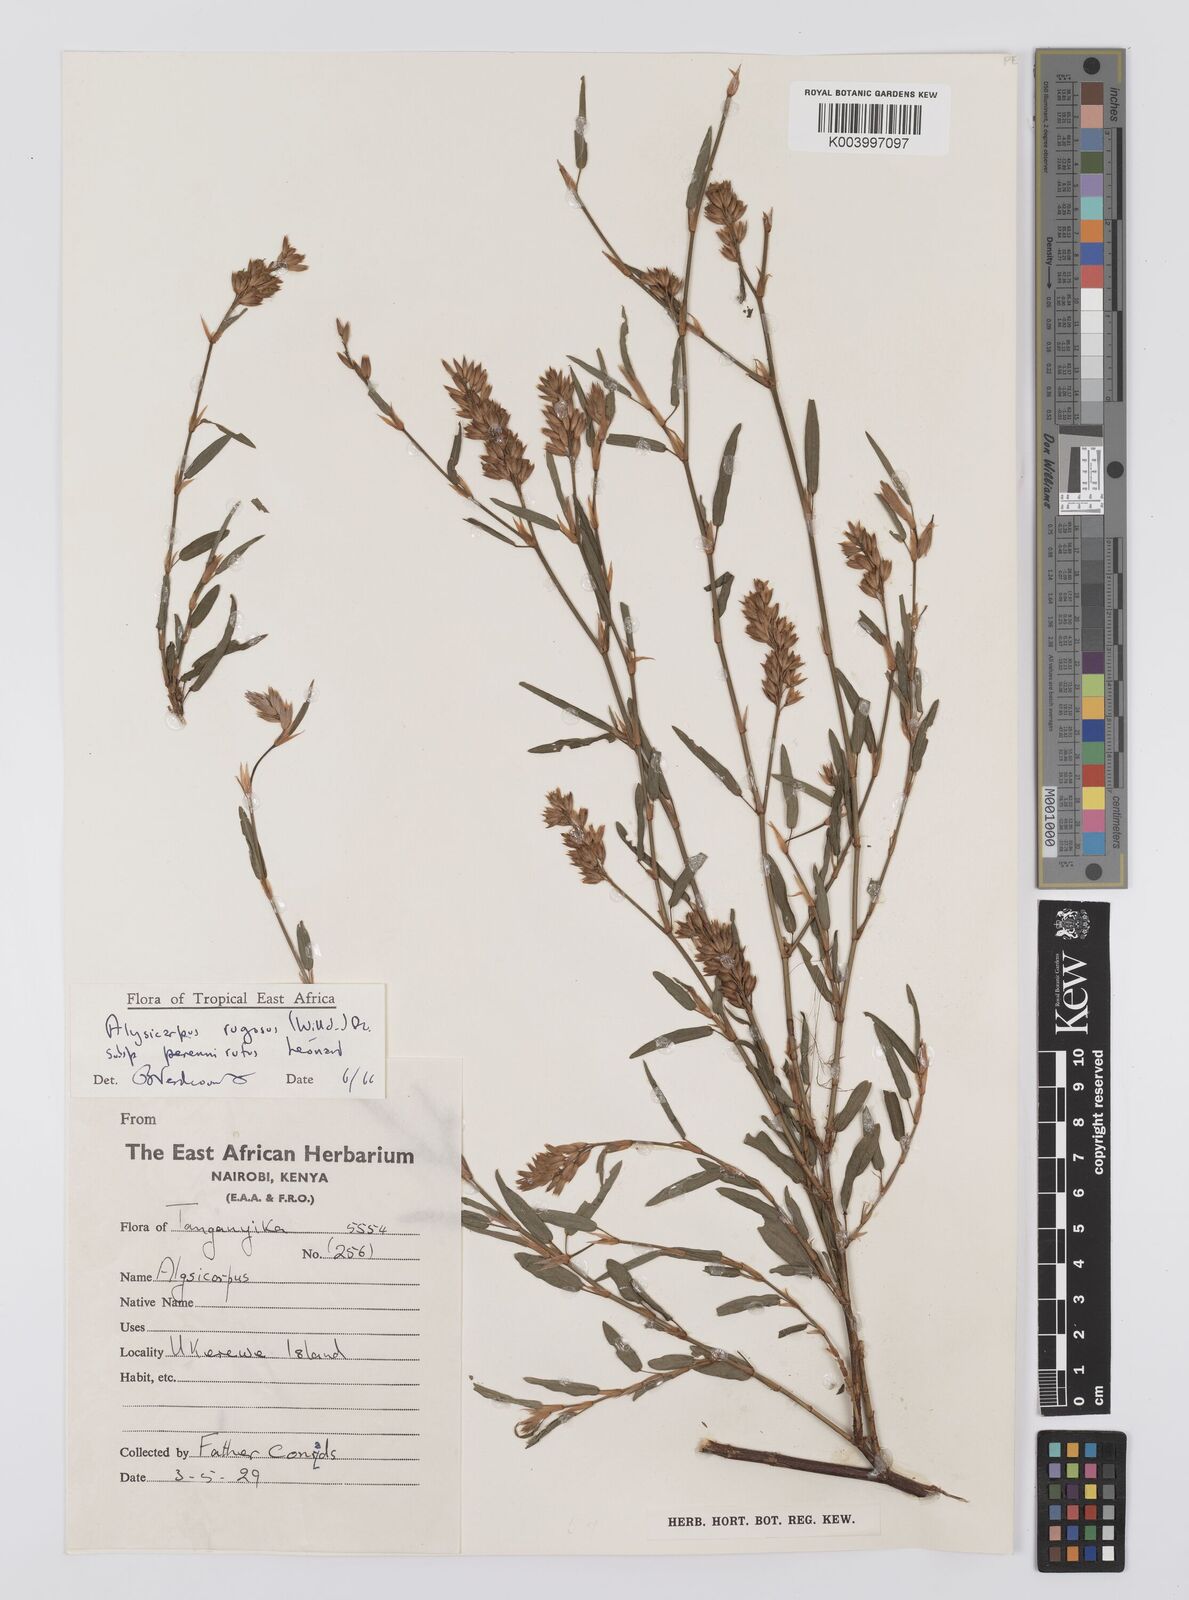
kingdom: Plantae
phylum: Tracheophyta
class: Magnoliopsida
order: Fabales
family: Fabaceae
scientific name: Fabaceae
